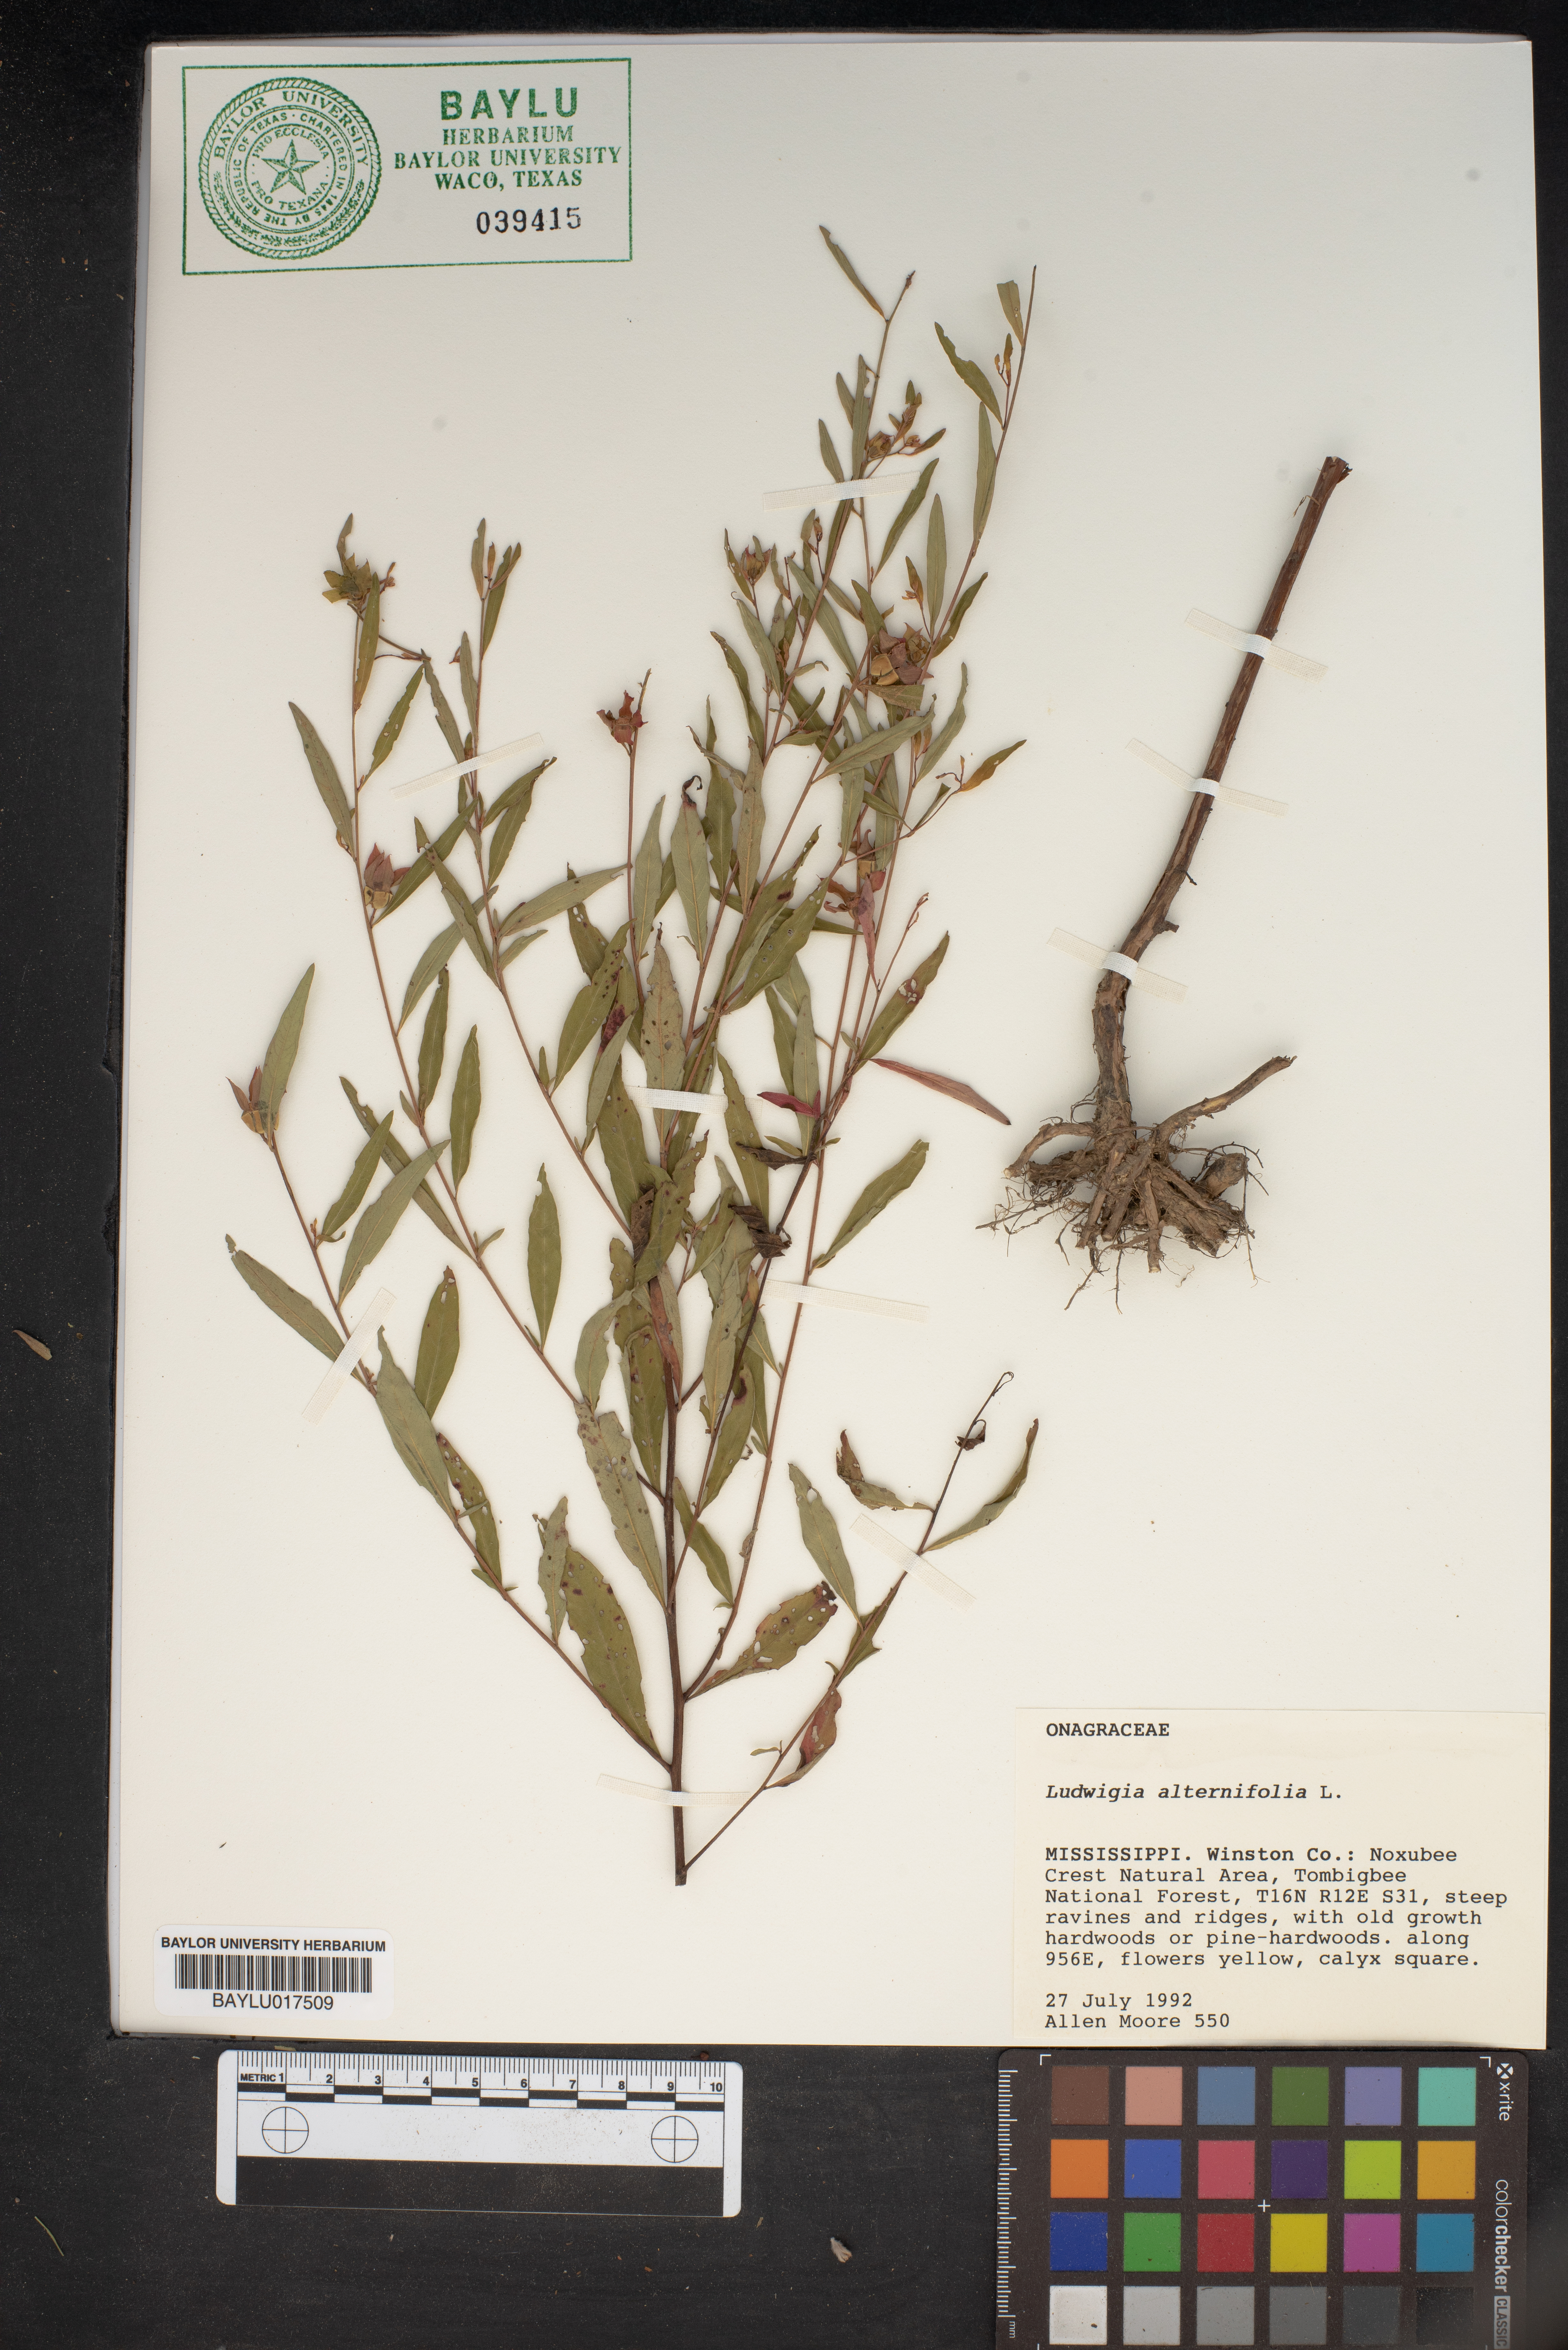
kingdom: Plantae
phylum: Tracheophyta
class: Magnoliopsida
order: Myrtales
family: Onagraceae
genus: Ludwigia
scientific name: Ludwigia alternifolia
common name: Rattlebox
